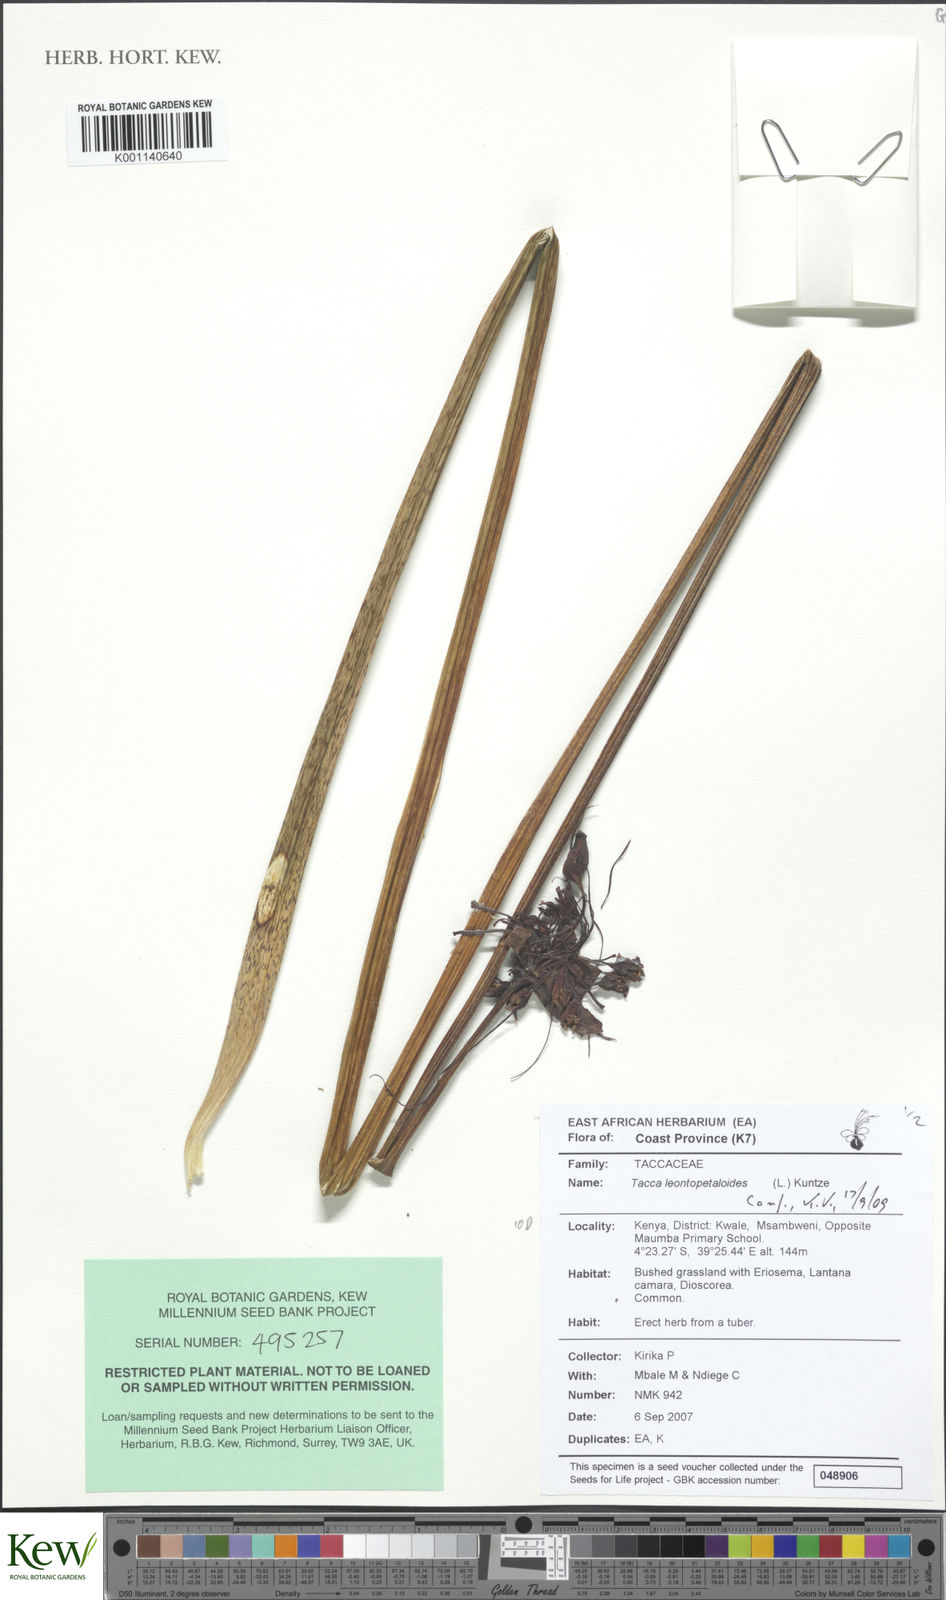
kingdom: Plantae
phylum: Tracheophyta
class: Liliopsida
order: Dioscoreales
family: Dioscoreaceae
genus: Tacca
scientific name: Tacca leontopetaloides
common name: Arrowroot
